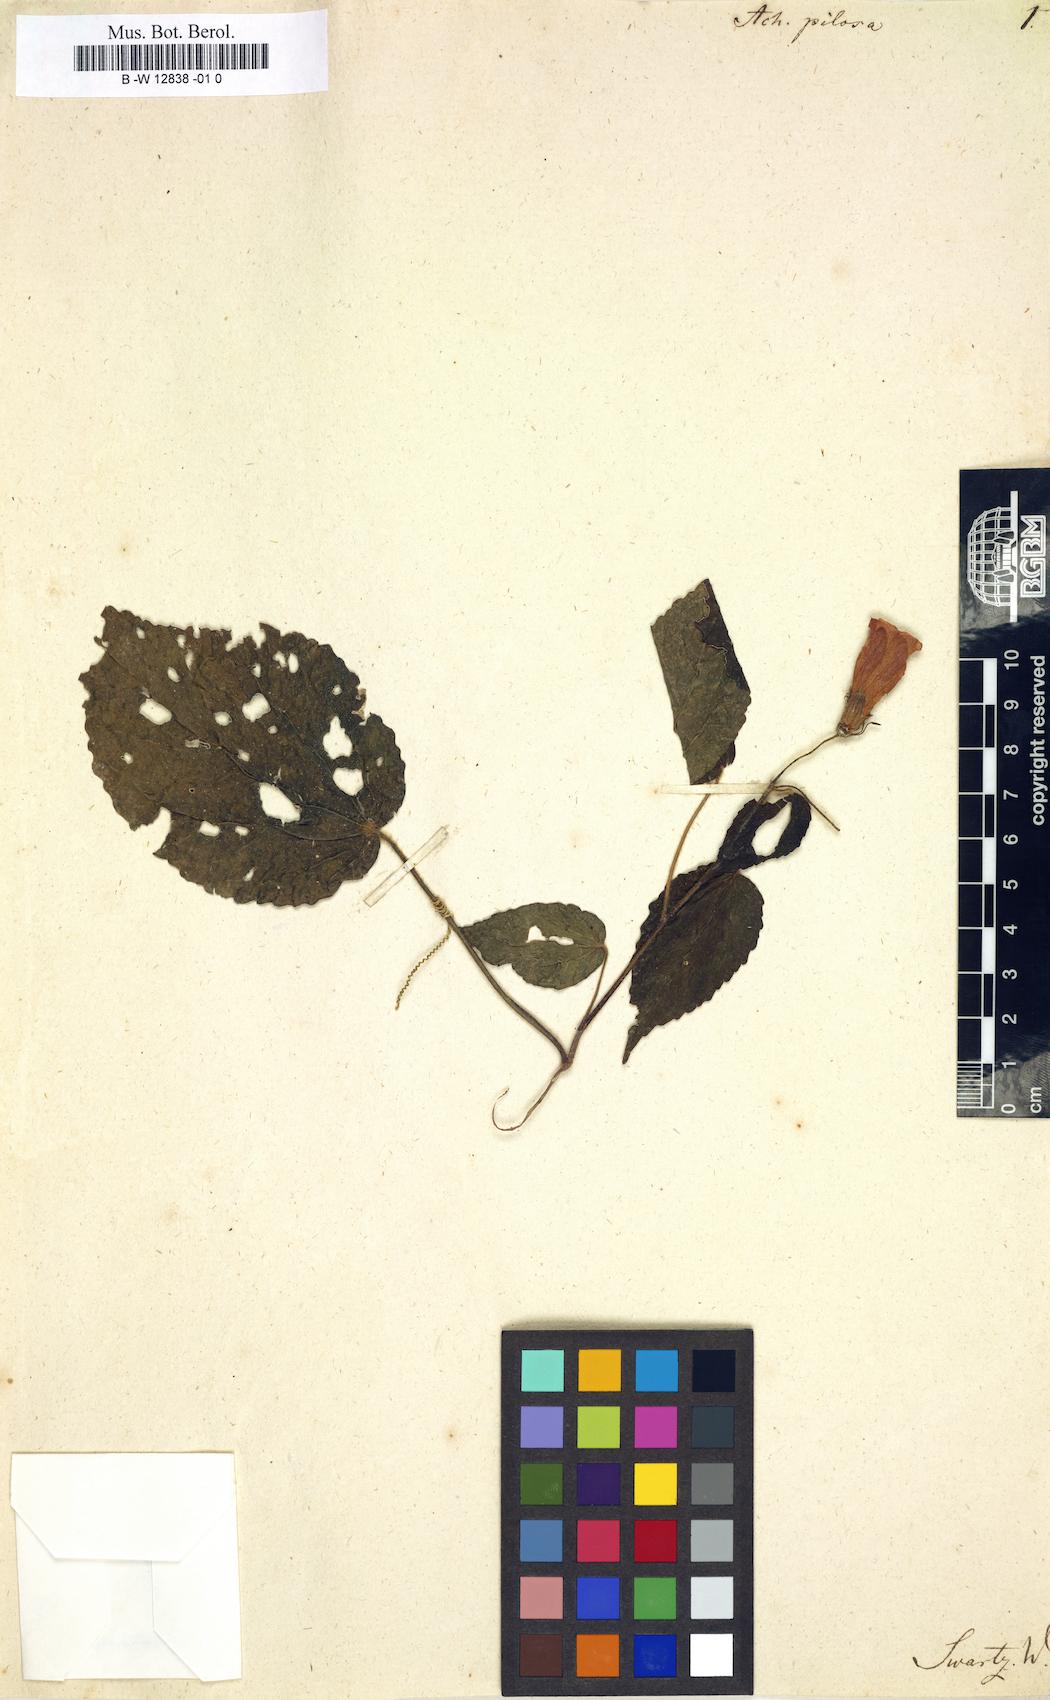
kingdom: Plantae
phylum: Tracheophyta
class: Magnoliopsida
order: Malvales
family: Malvaceae
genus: Malvaviscus
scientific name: Malvaviscus arboreus
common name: Wax mallow
